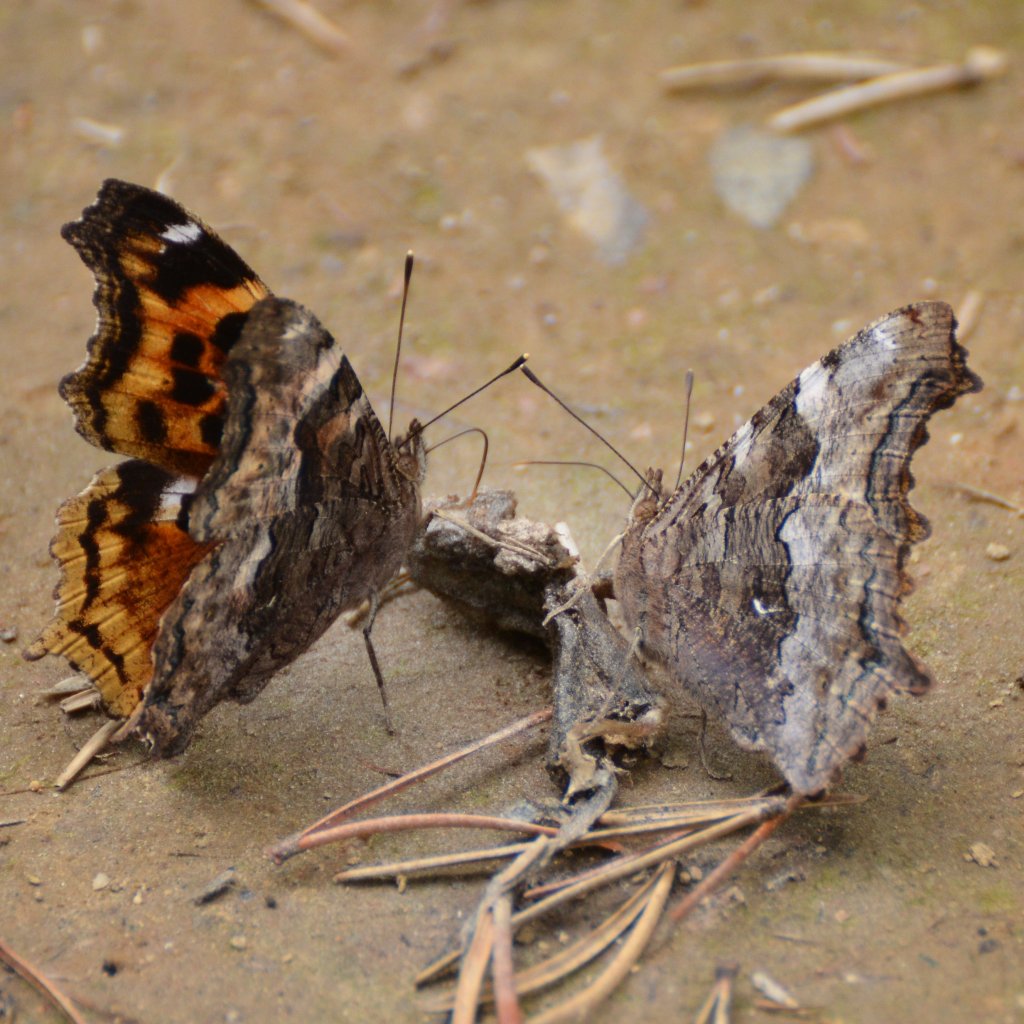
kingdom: Animalia
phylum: Arthropoda
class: Insecta
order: Lepidoptera
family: Nymphalidae
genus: Polygonia
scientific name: Polygonia vaualbum
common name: Compton Tortoiseshell
